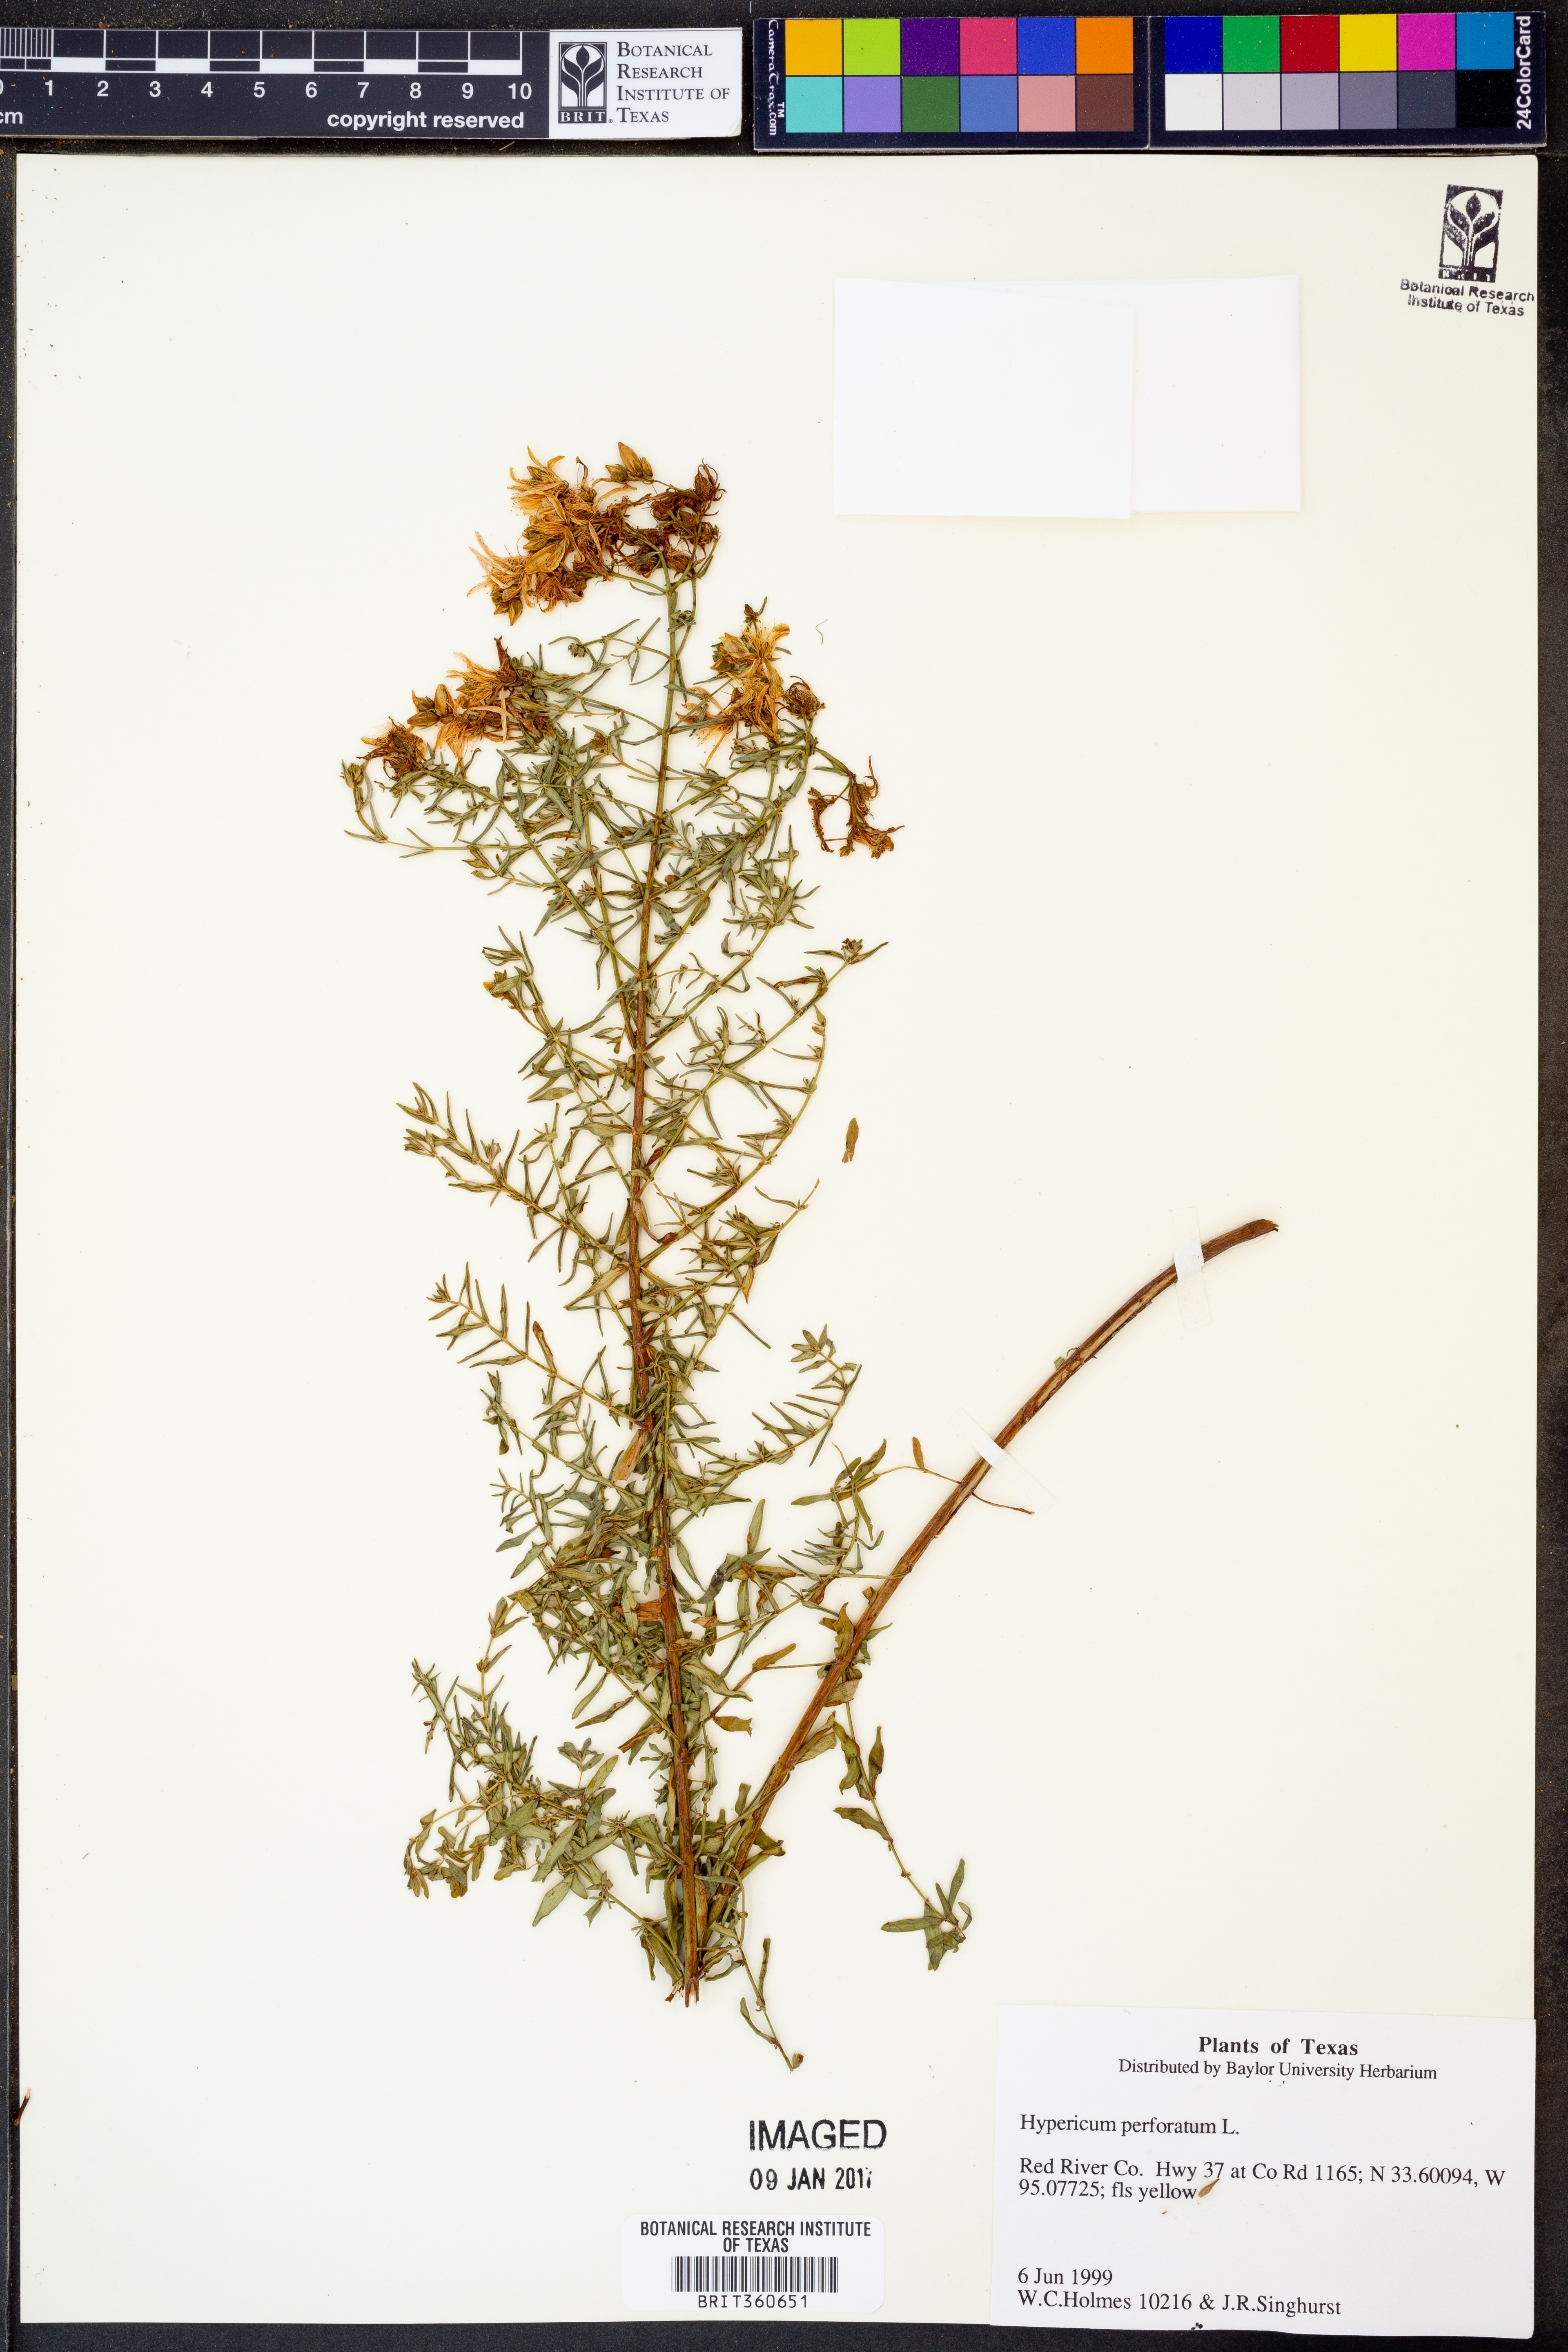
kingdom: Plantae
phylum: Tracheophyta
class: Magnoliopsida
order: Malpighiales
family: Hypericaceae
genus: Hypericum
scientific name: Hypericum perforatum
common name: Common st. johnswort
